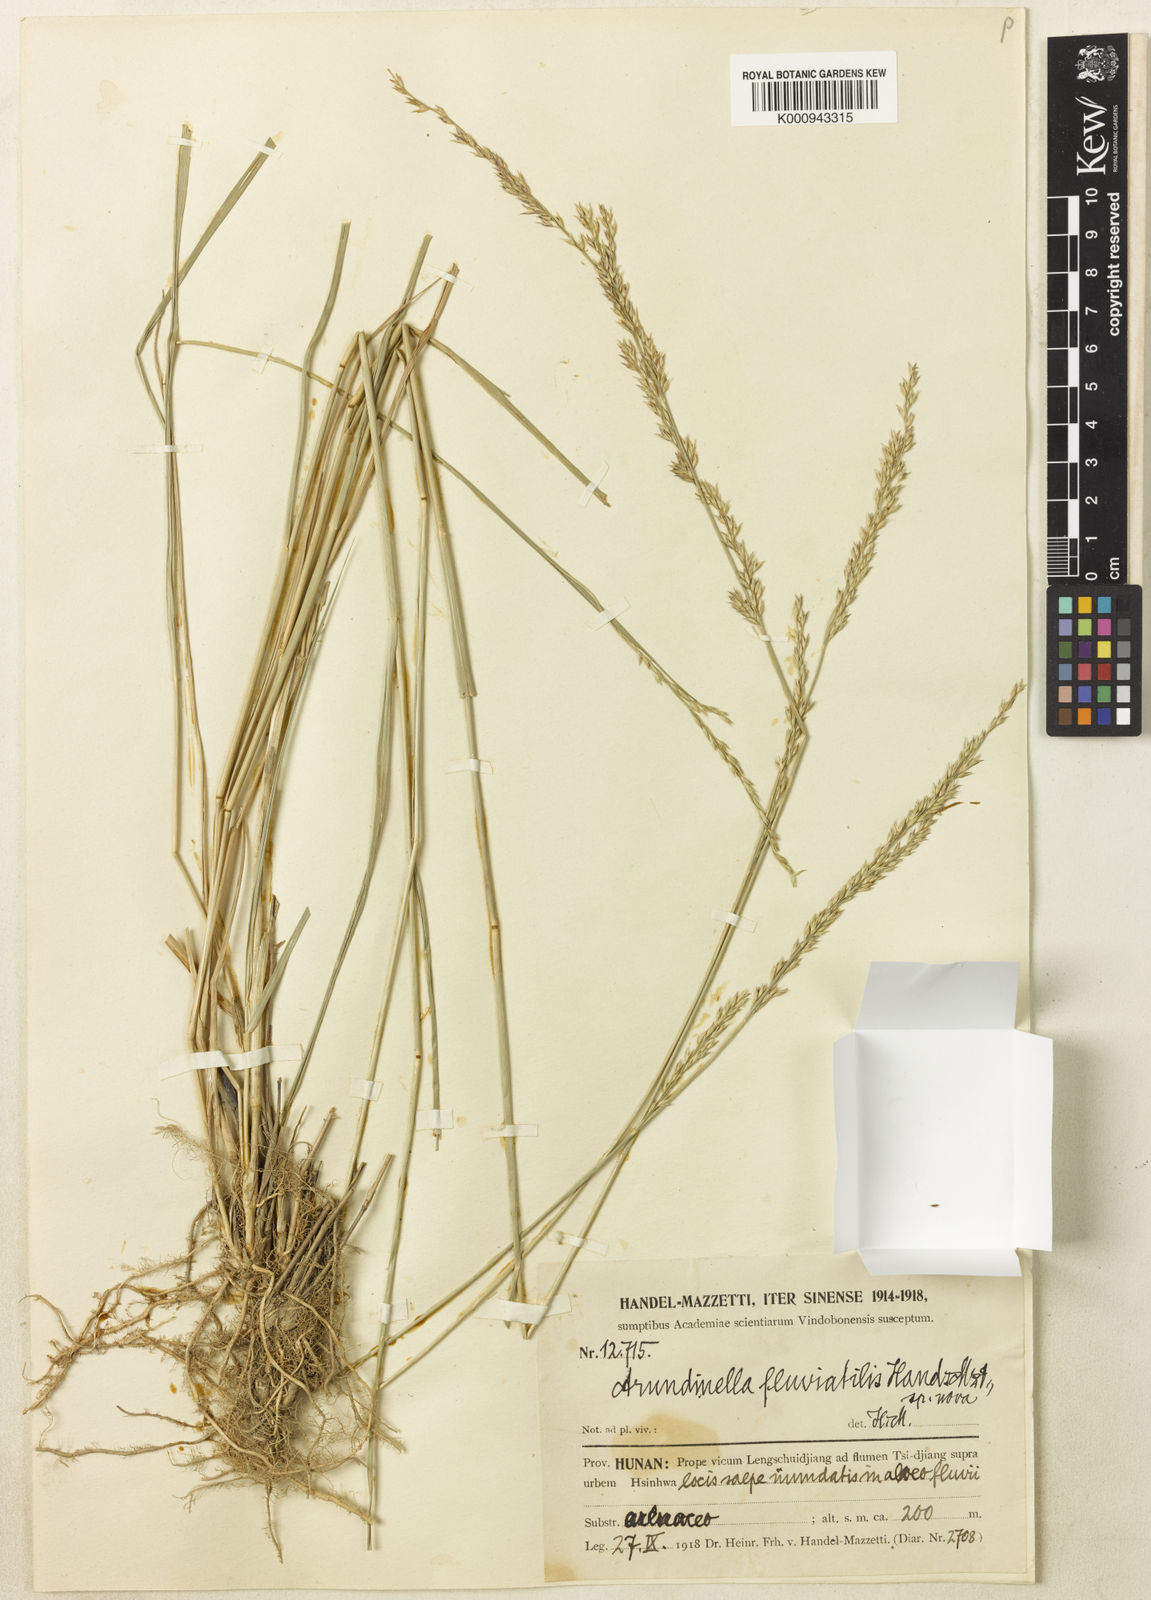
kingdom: Plantae
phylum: Tracheophyta
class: Liliopsida
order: Poales
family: Poaceae
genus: Arundinella
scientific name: Arundinella fluviatilis
